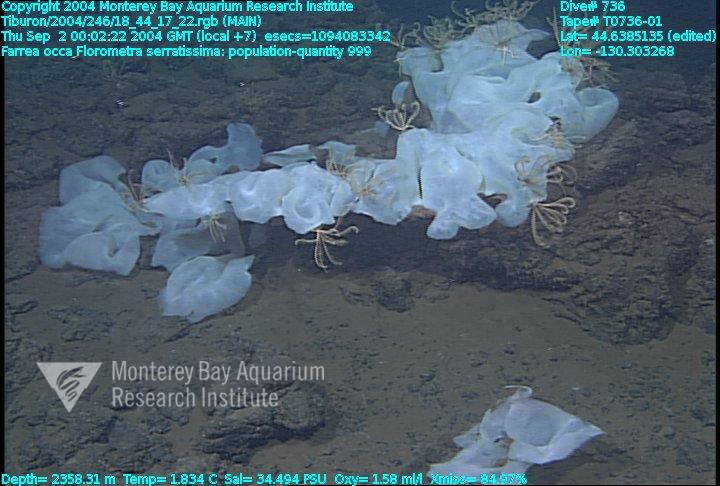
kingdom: Animalia
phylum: Porifera
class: Hexactinellida
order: Sceptrulophora
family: Farreidae
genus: Farrea
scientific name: Farrea occa
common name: Reversed glass sponge
